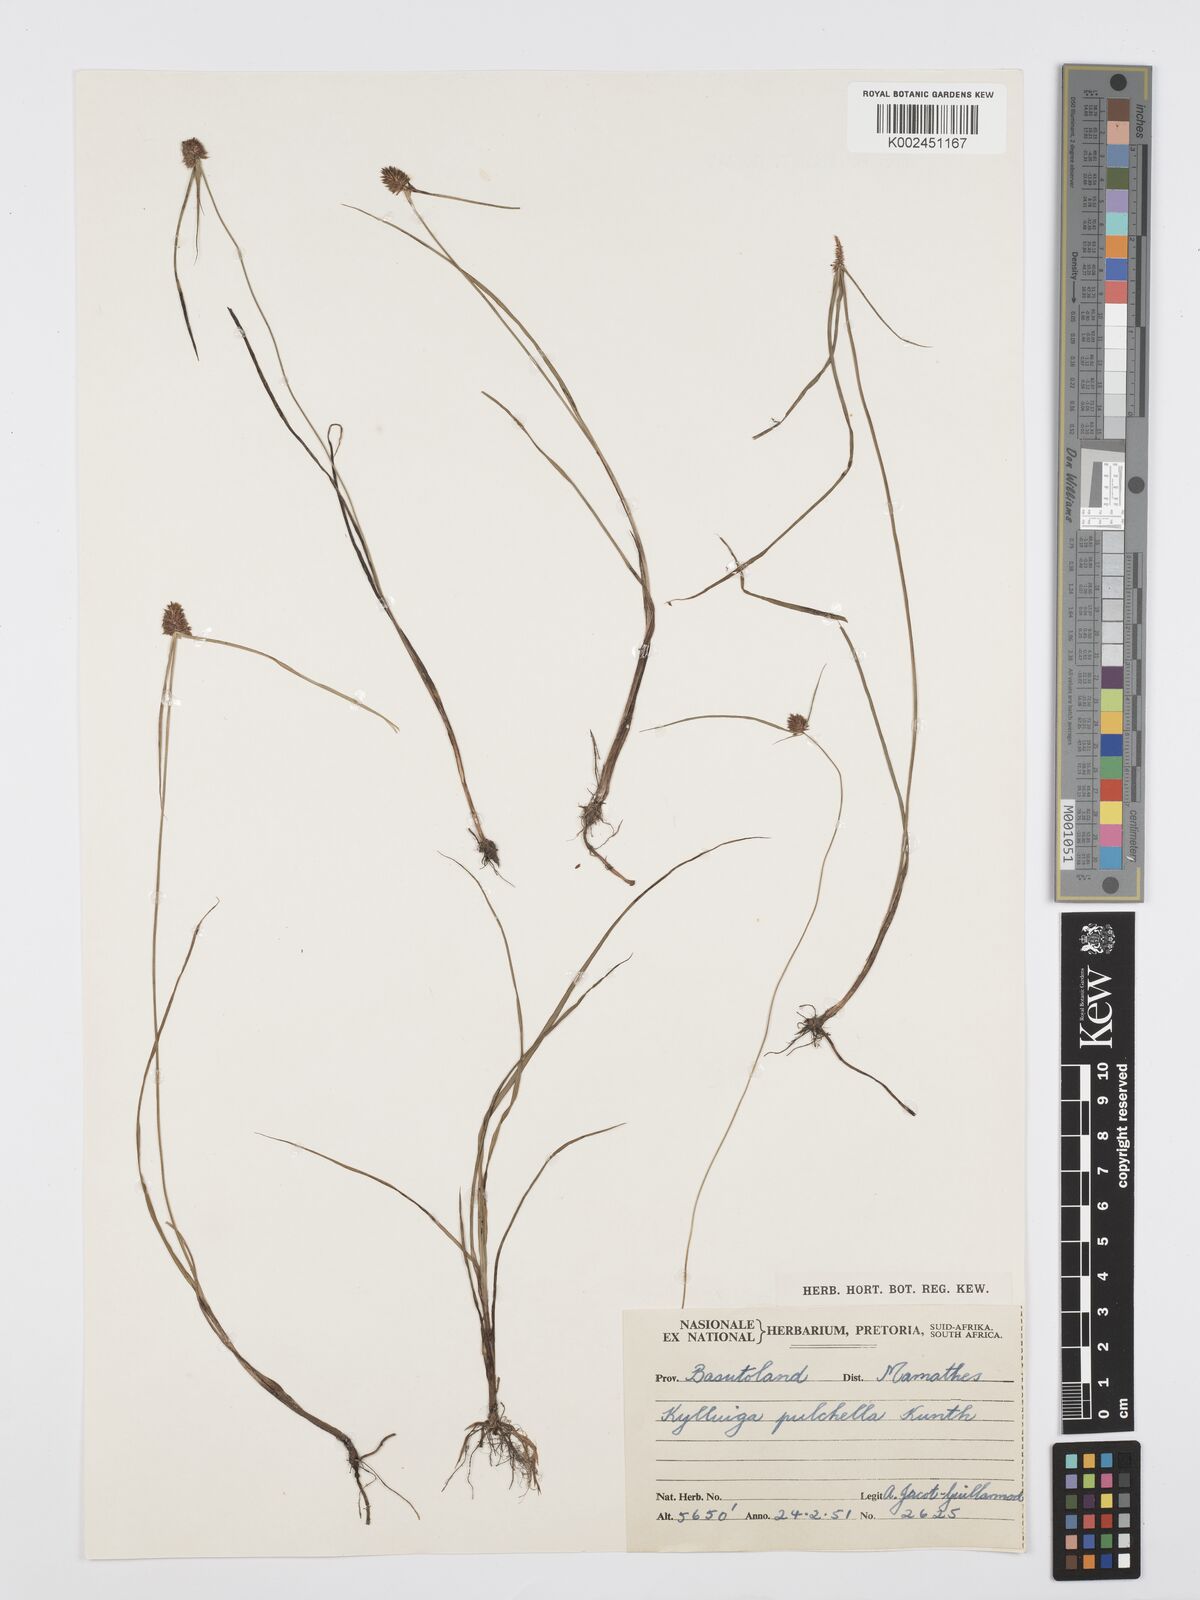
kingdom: Plantae
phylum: Tracheophyta
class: Liliopsida
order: Poales
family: Cyperaceae
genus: Cyperus
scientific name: Cyperus bracheilema
